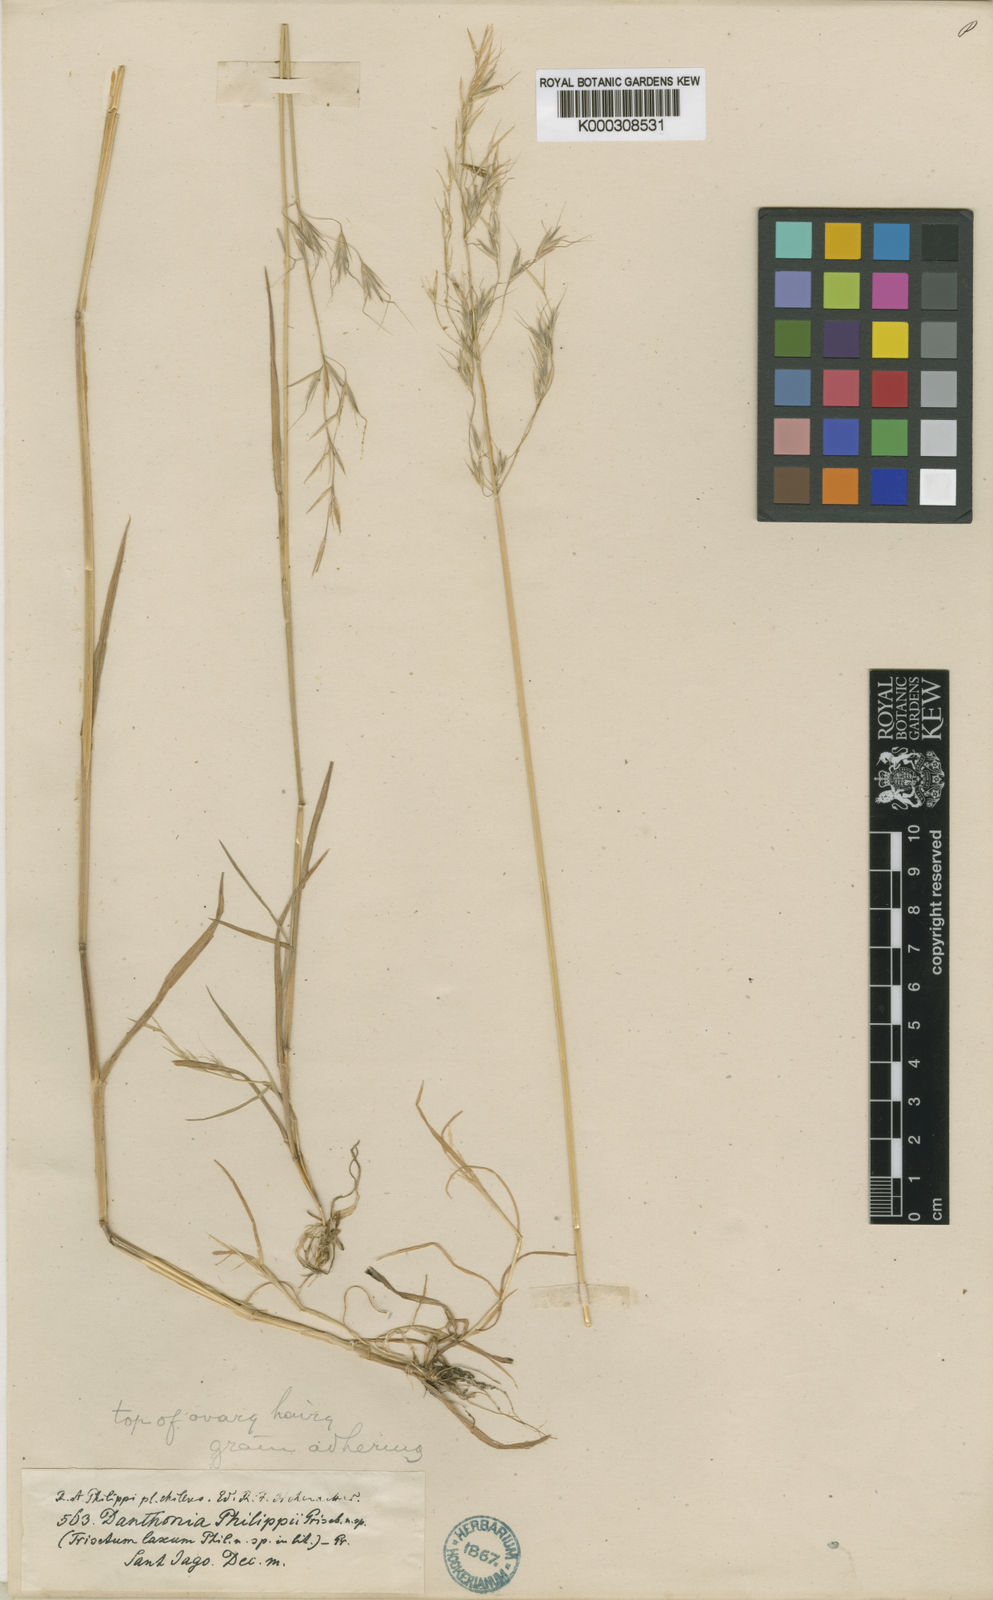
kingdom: Plantae
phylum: Tracheophyta
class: Liliopsida
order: Poales
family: Poaceae
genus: Bromus
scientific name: Bromus berteroanus
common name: Chilean chess
